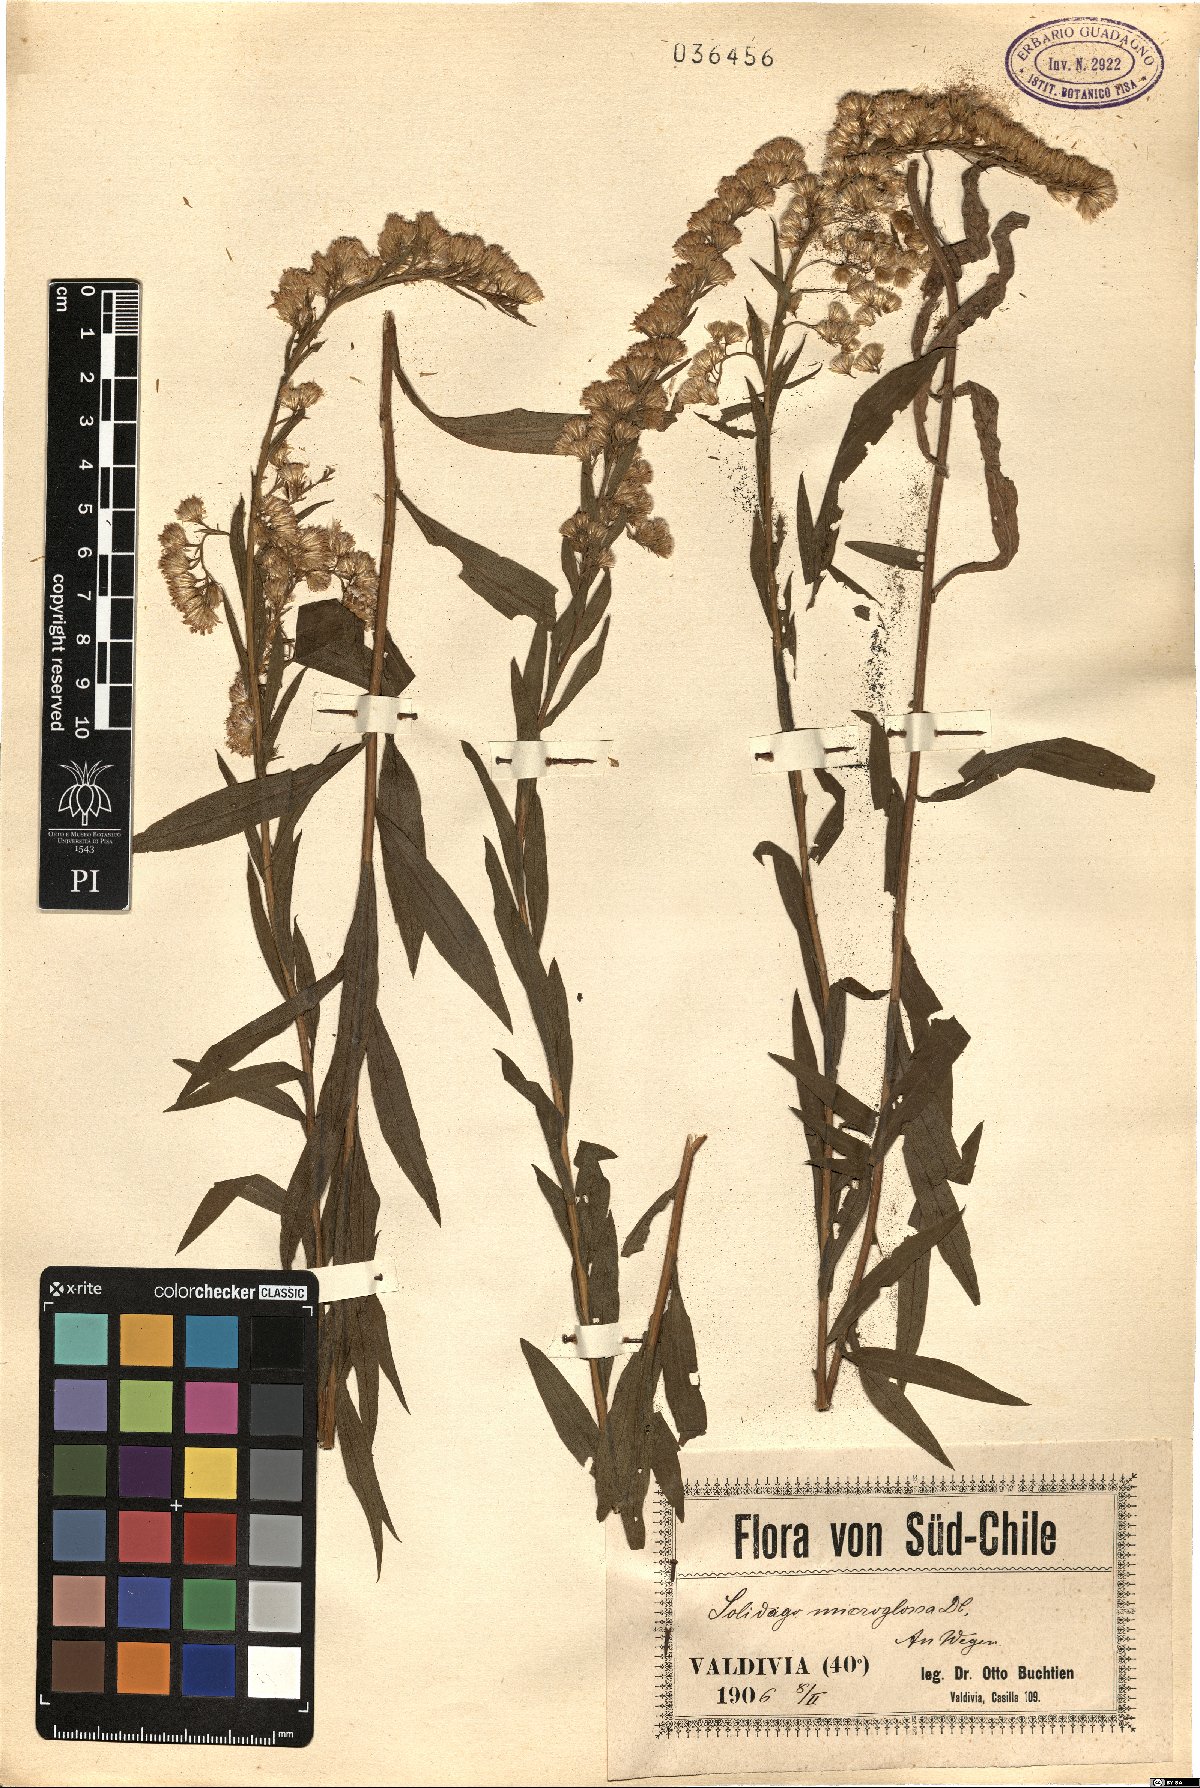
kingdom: Plantae
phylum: Tracheophyta
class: Magnoliopsida
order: Asterales
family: Asteraceae
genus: Solidago
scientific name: Solidago microglossa
